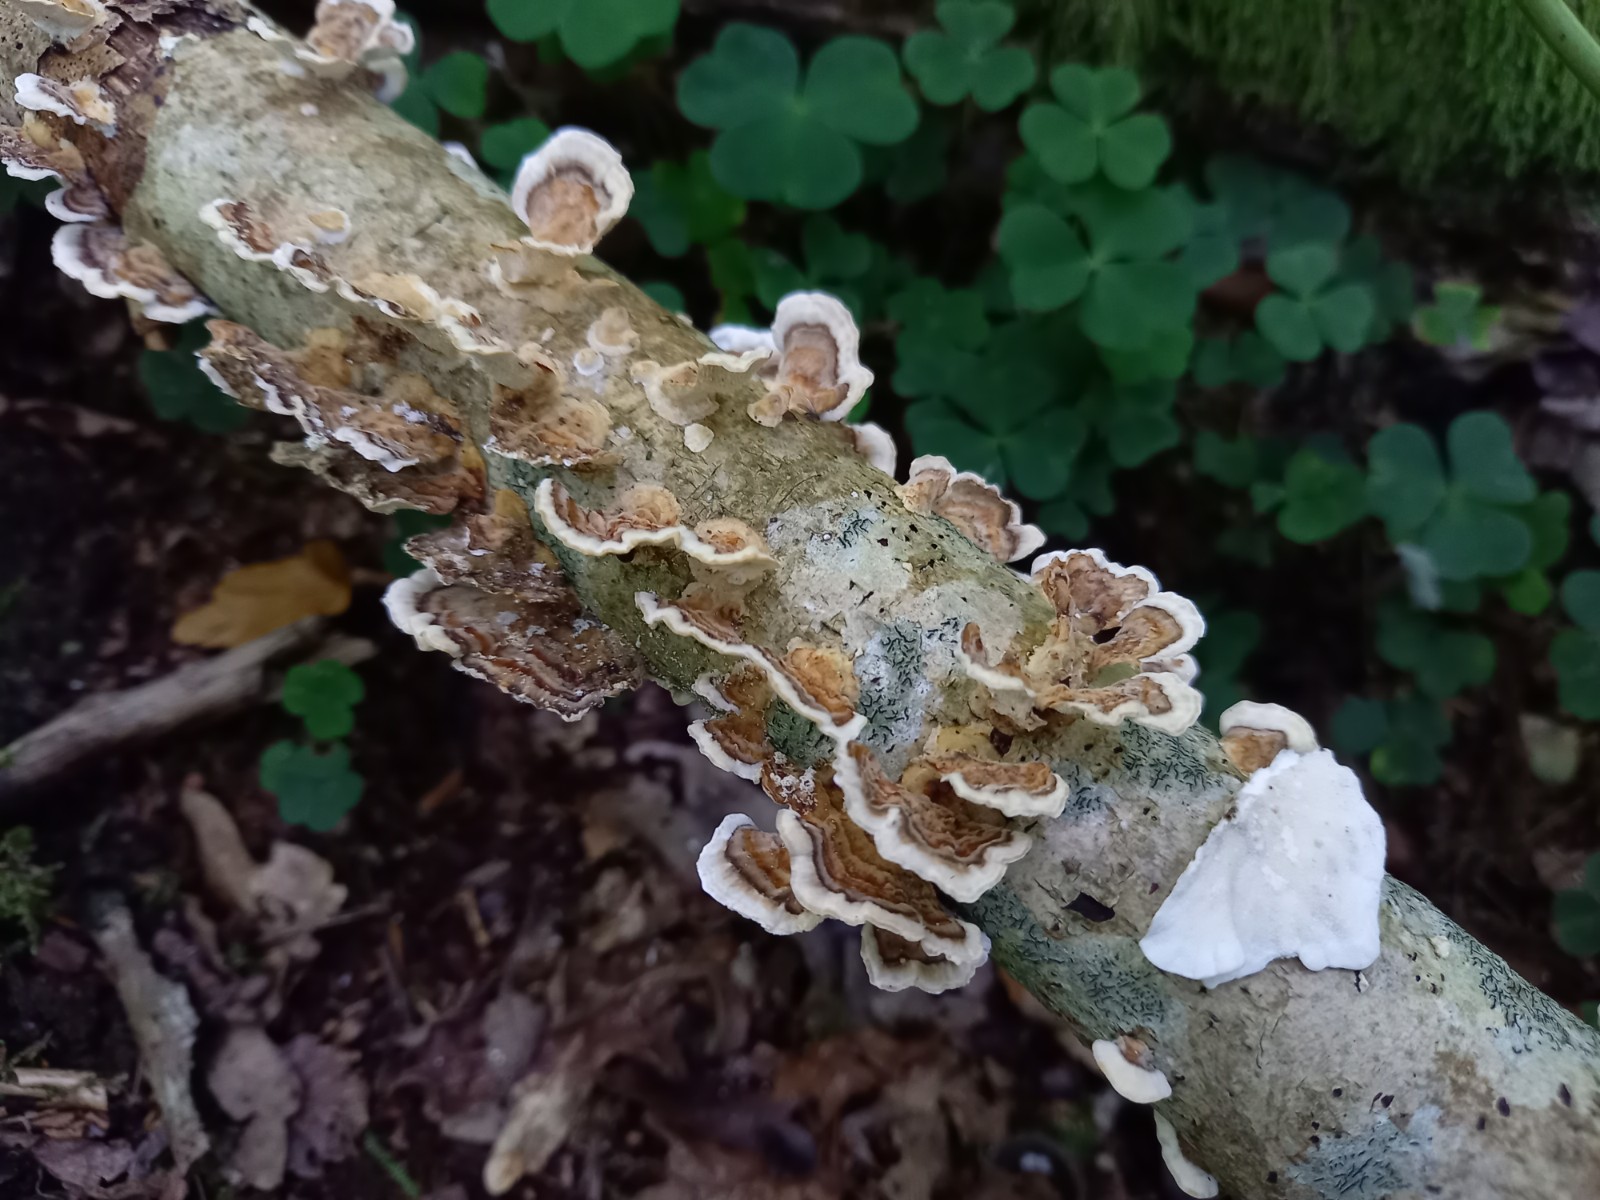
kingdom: Fungi
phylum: Basidiomycota
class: Agaricomycetes
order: Polyporales
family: Polyporaceae
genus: Trametes
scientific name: Trametes versicolor
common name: broget læderporesvamp
